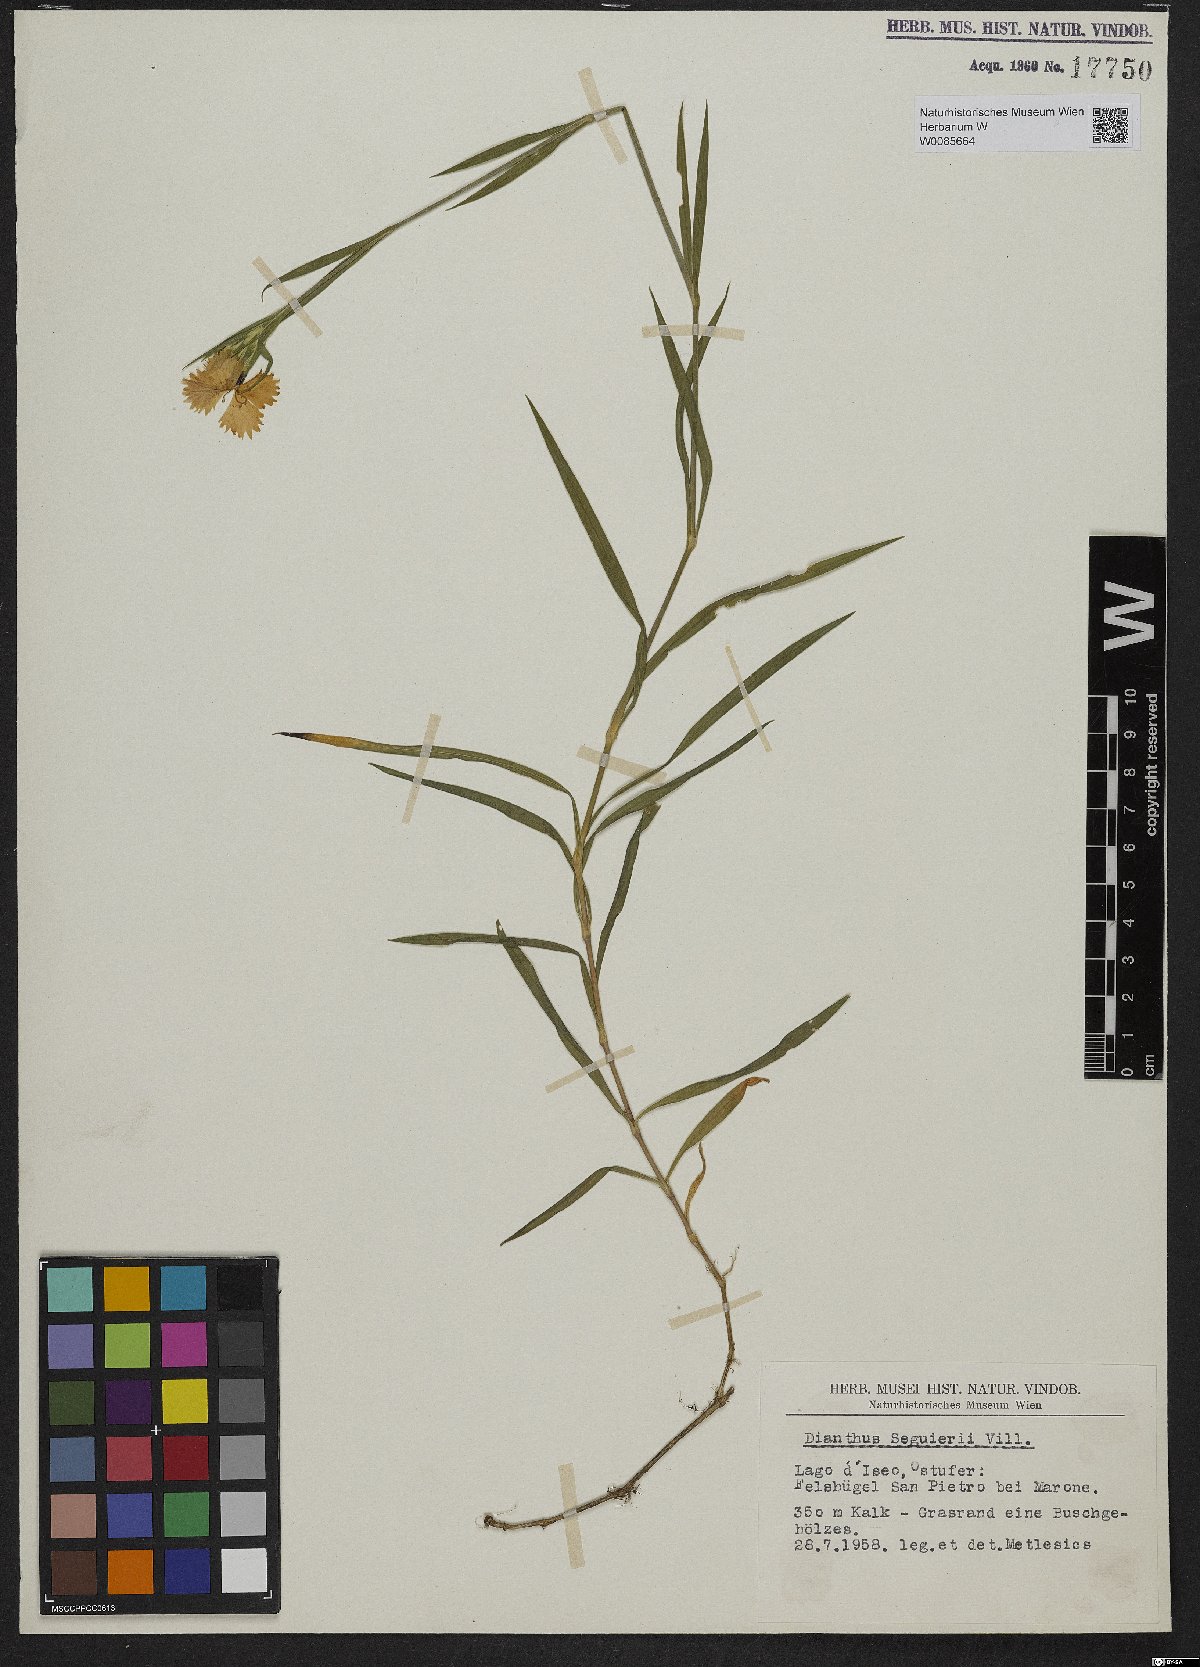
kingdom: Plantae
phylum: Tracheophyta
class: Magnoliopsida
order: Caryophyllales
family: Caryophyllaceae
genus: Dianthus
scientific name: Dianthus seguieri
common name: Ragged pink
